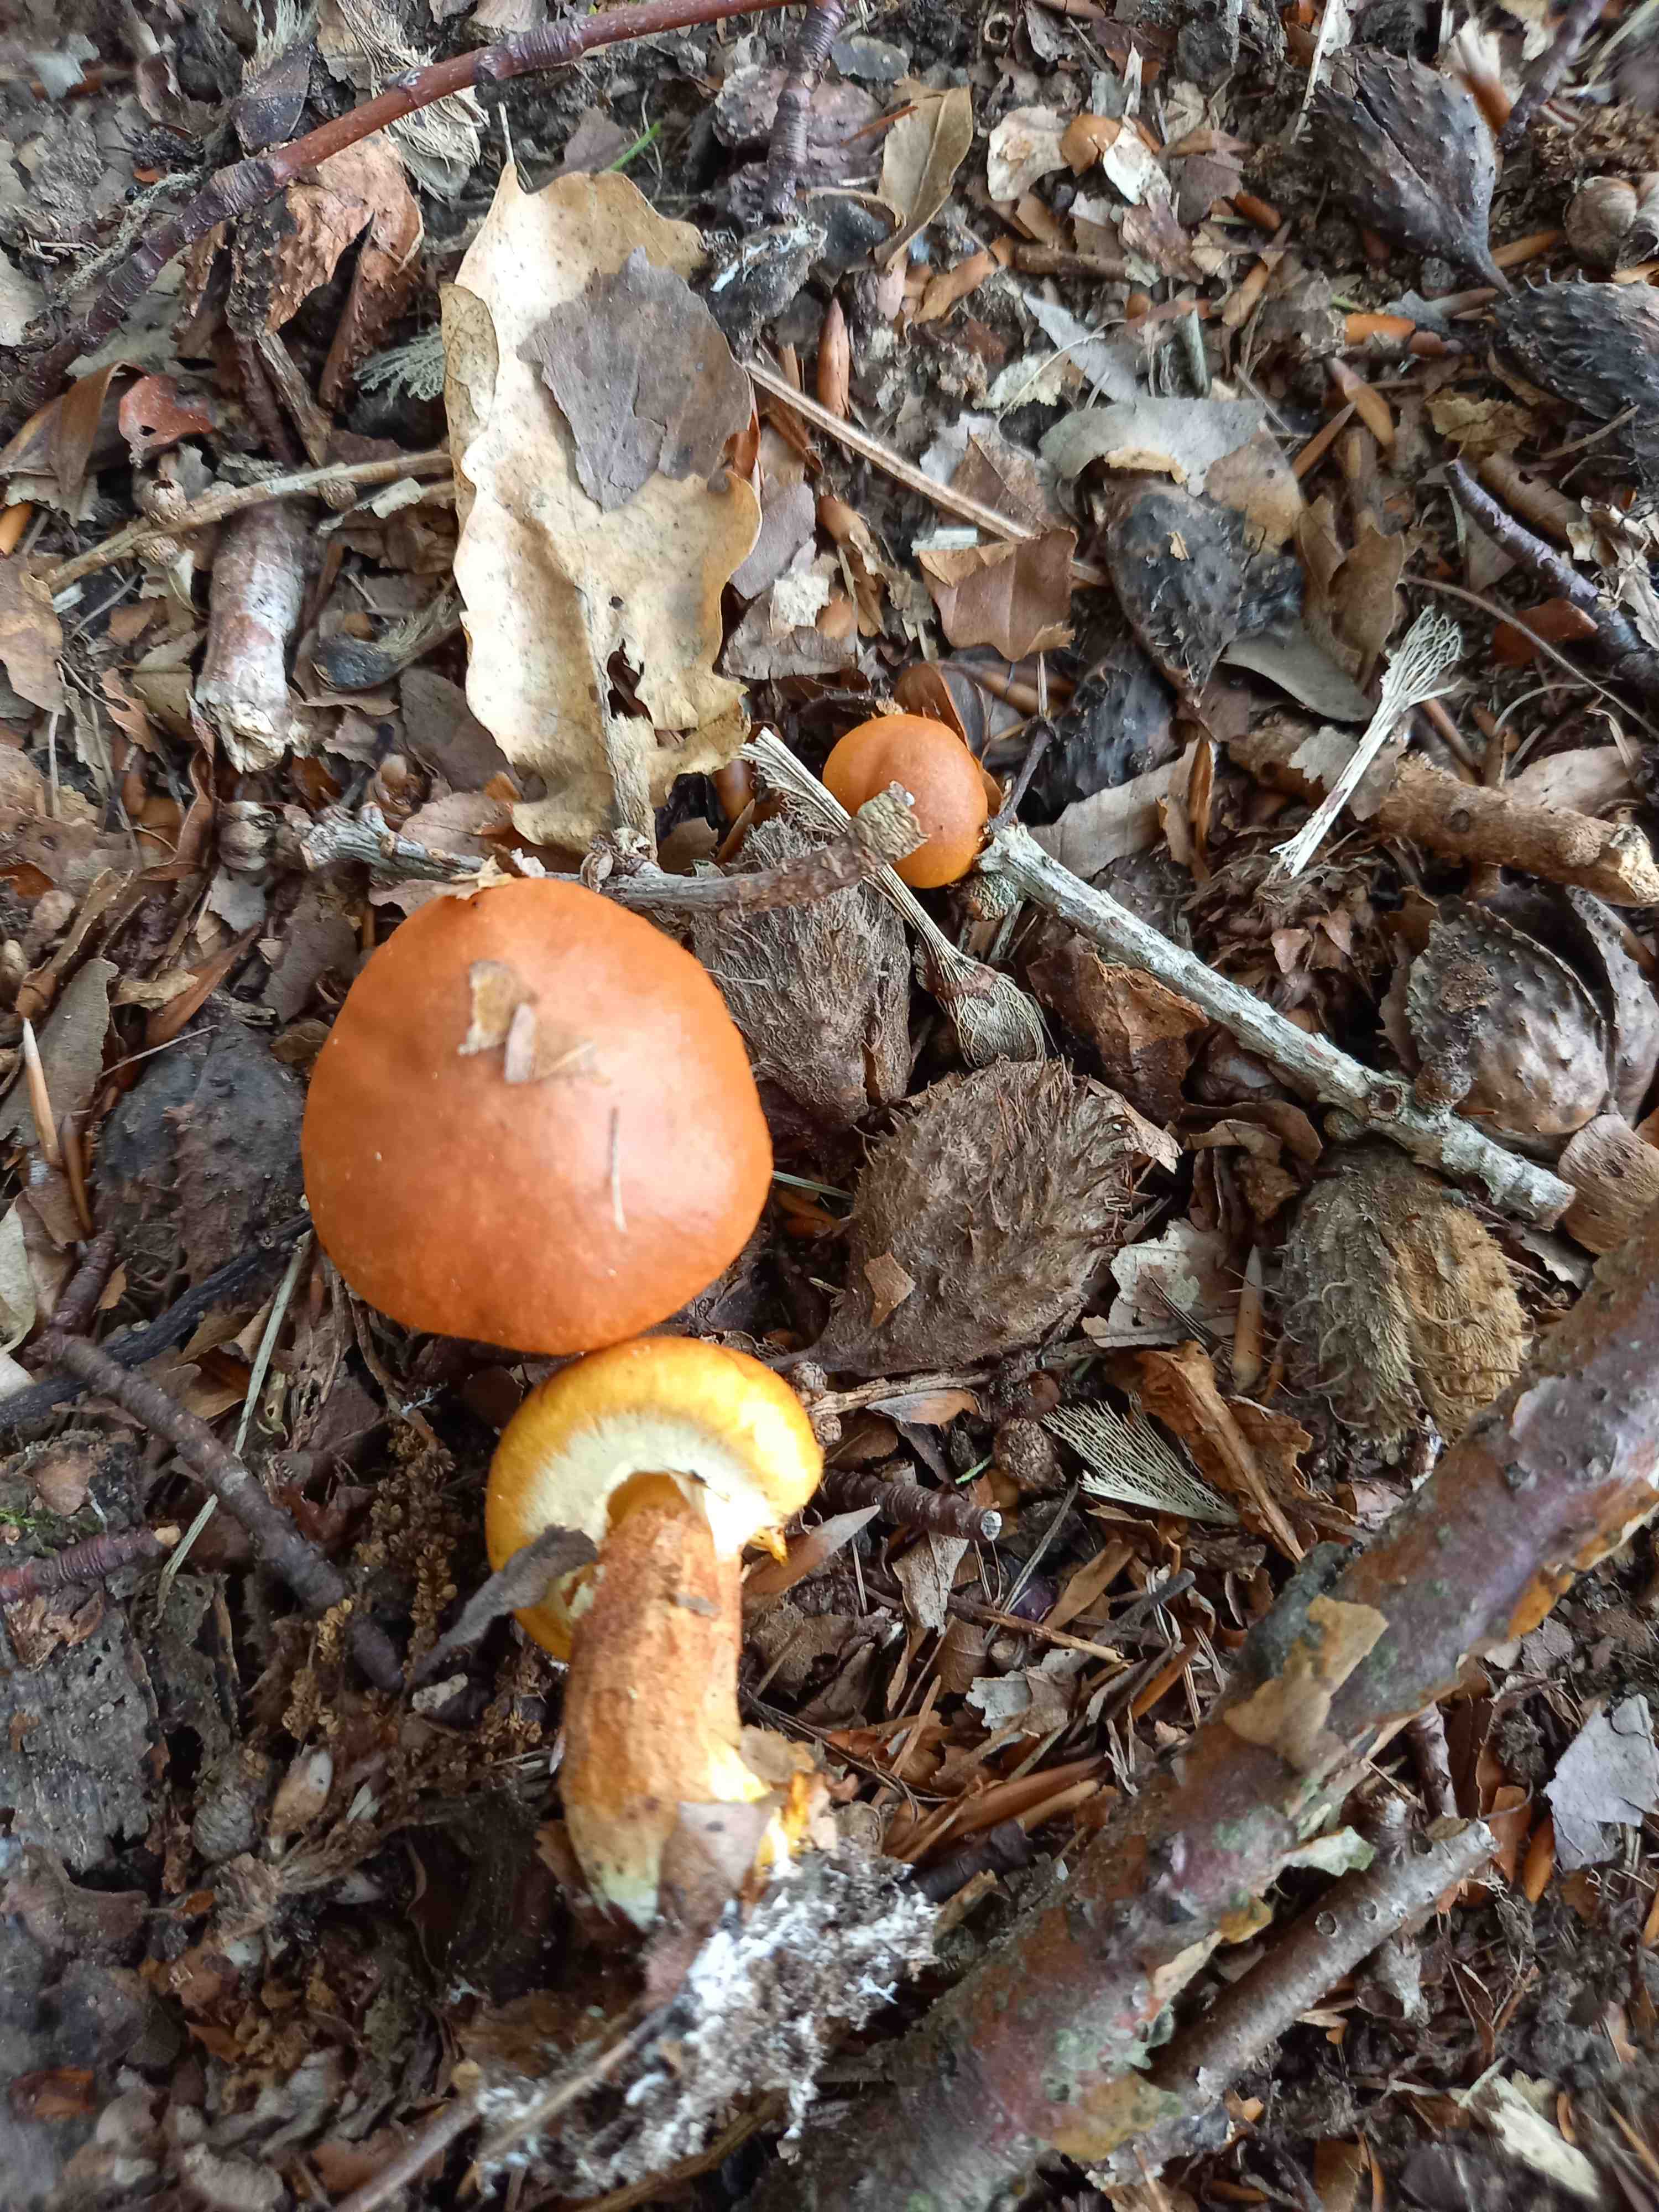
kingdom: Fungi
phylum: Basidiomycota
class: Agaricomycetes
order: Boletales
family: Suillaceae
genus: Suillus
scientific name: Suillus grevillei
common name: lærke-slimrørhat
